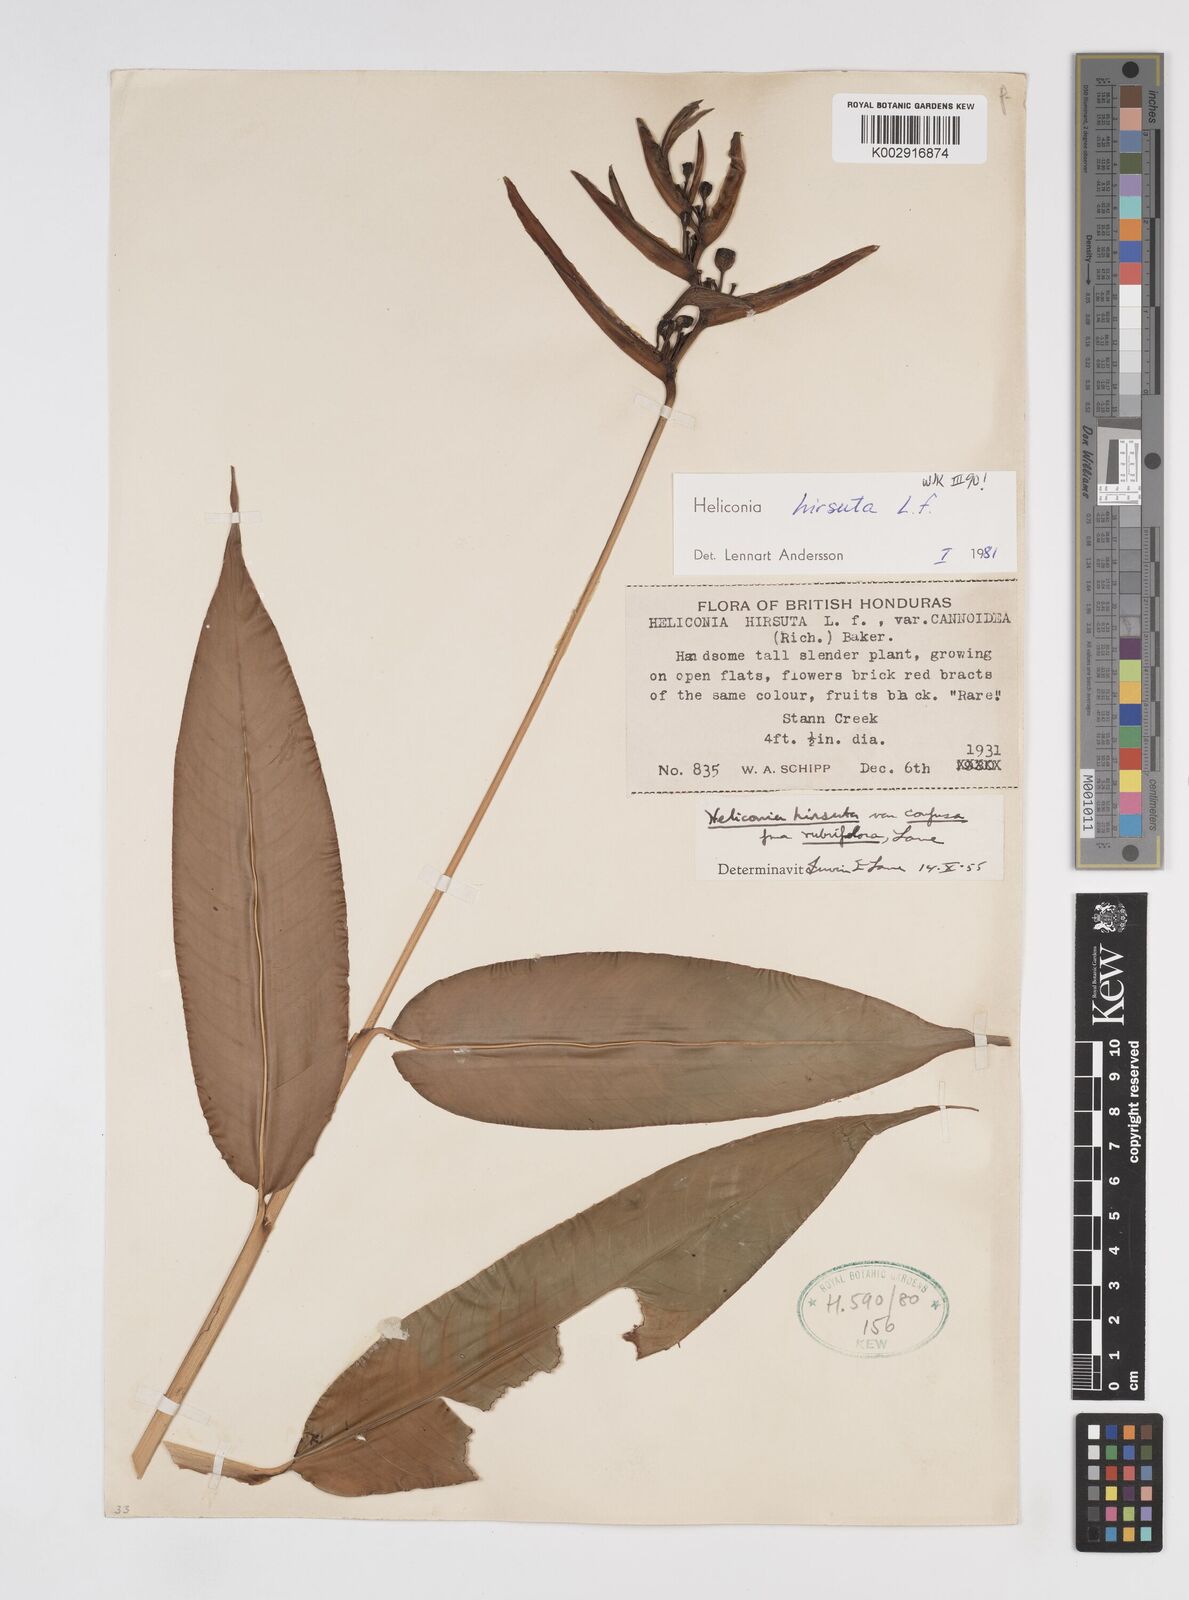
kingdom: Plantae
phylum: Tracheophyta
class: Liliopsida
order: Zingiberales
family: Heliconiaceae
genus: Heliconia
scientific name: Heliconia hirsuta
